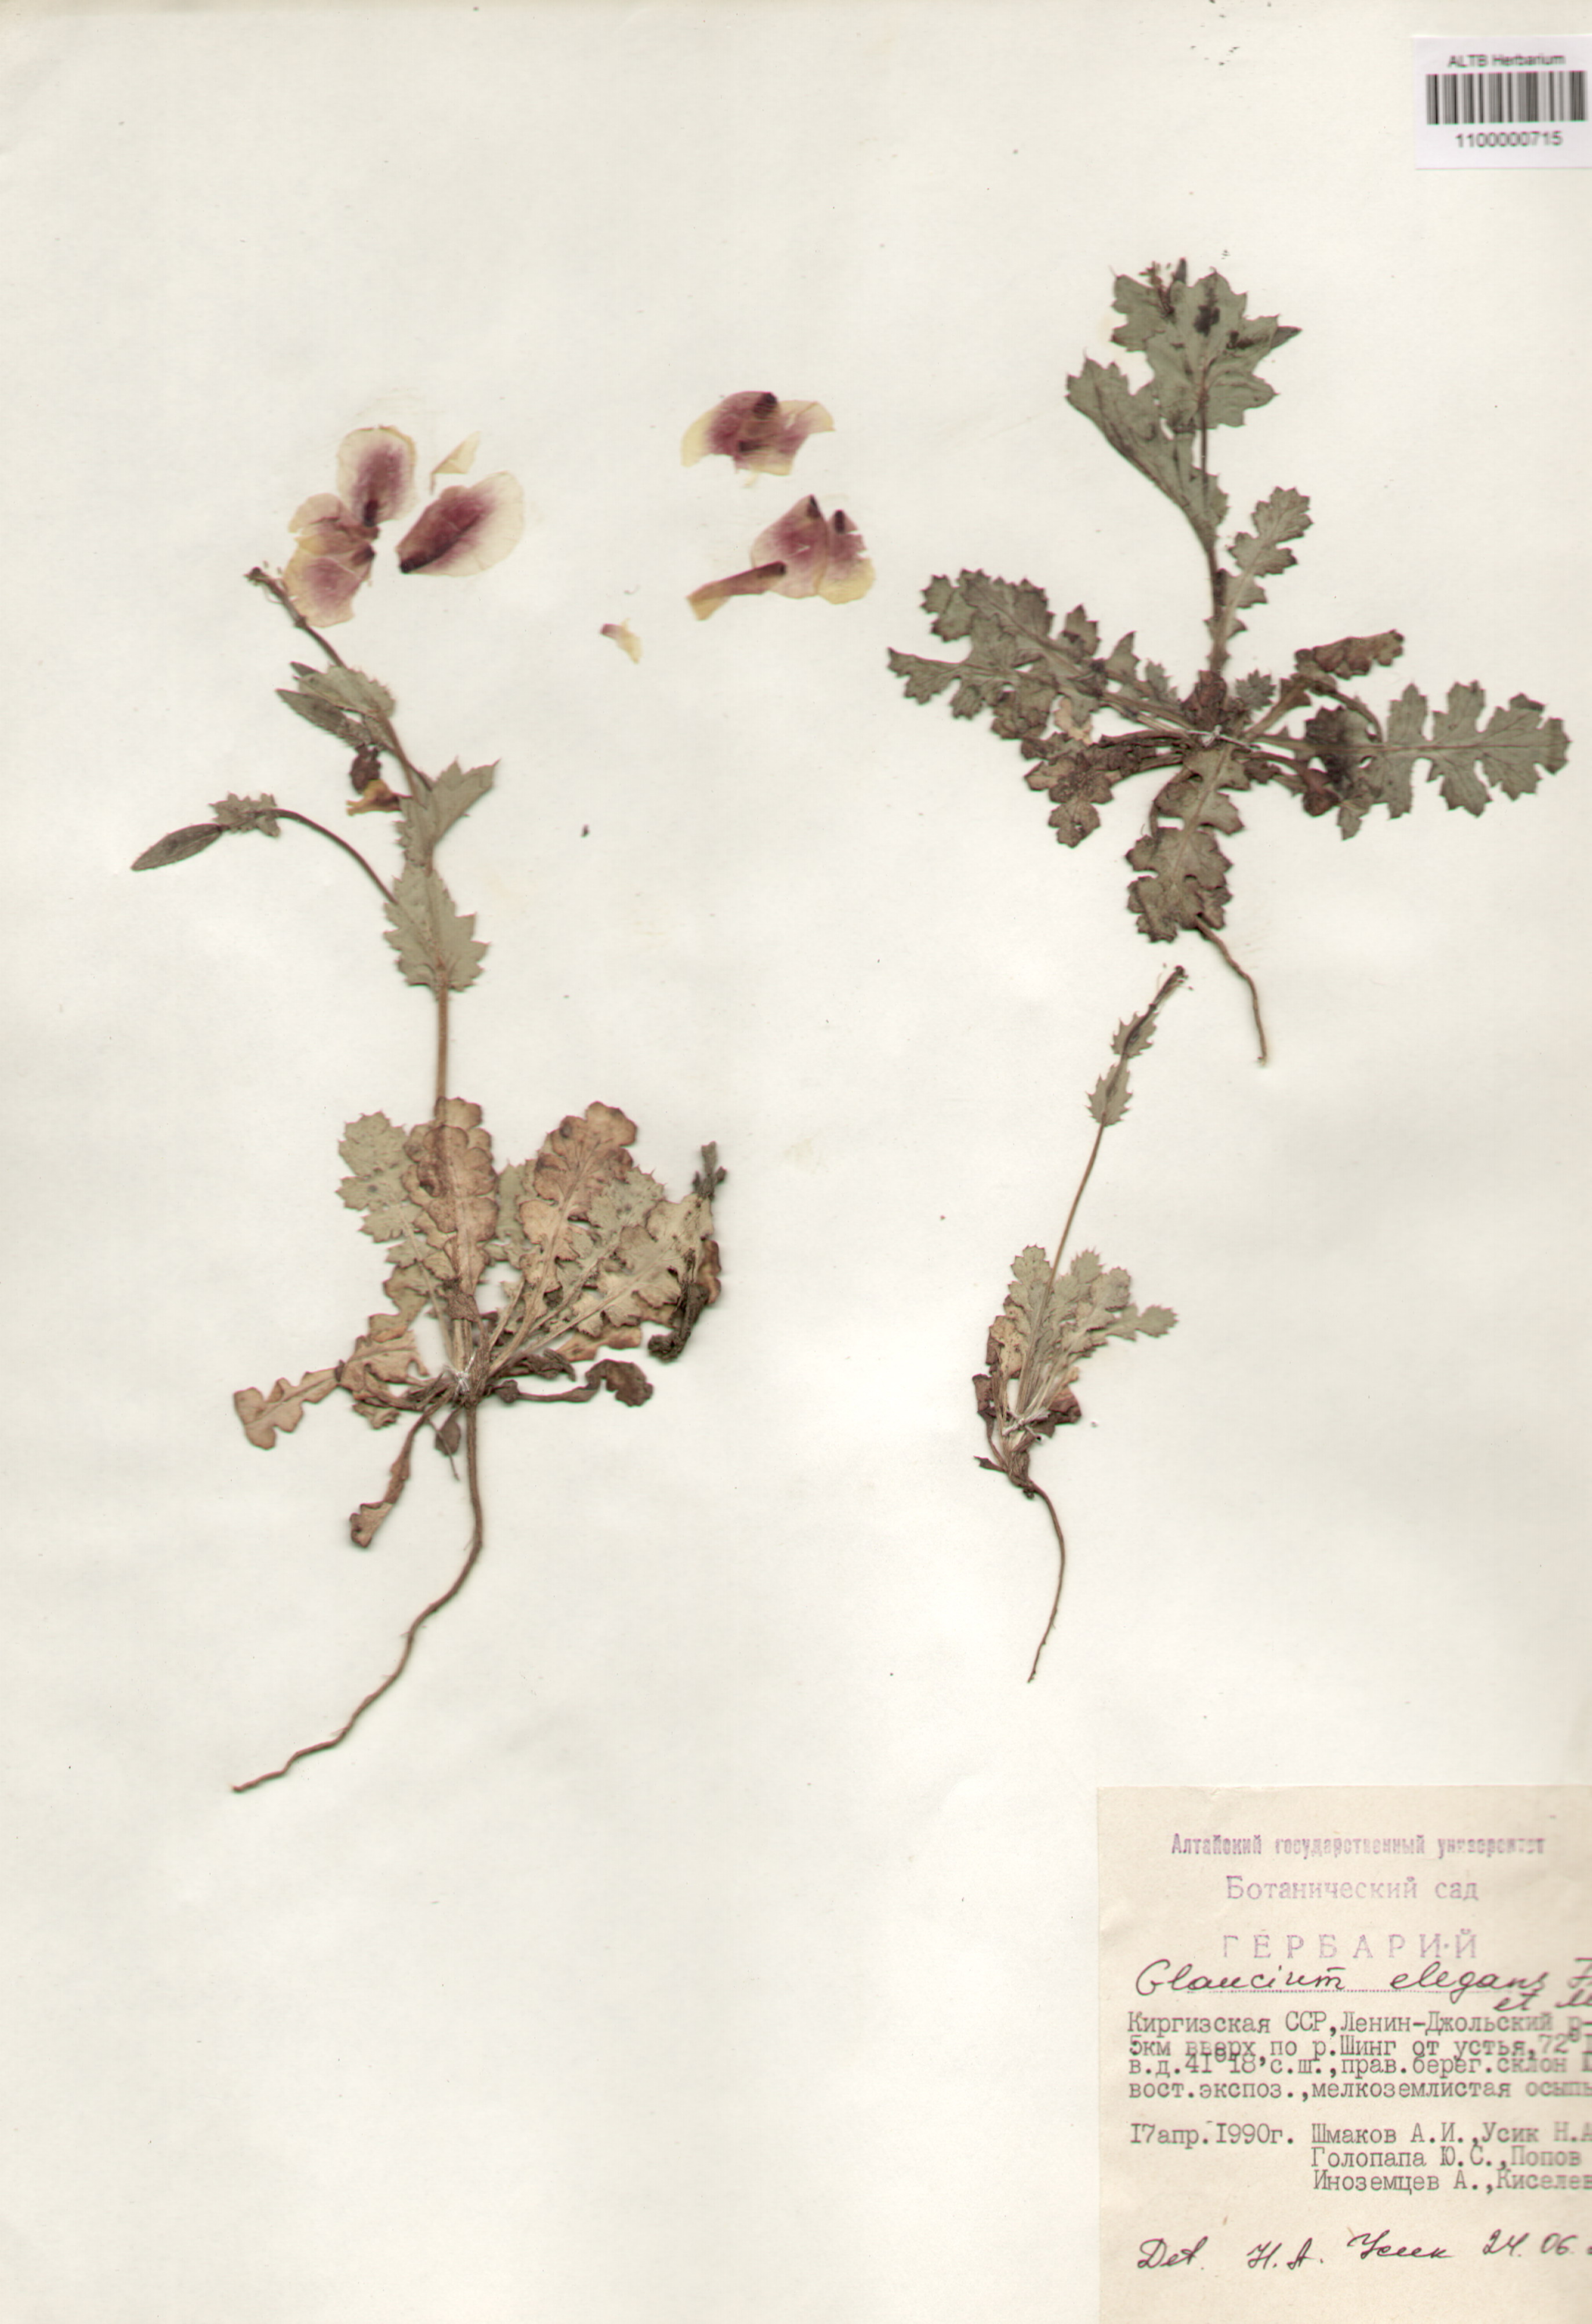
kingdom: Plantae
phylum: Tracheophyta
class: Magnoliopsida
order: Ranunculales
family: Papaveraceae
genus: Glaucium
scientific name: Glaucium elegans
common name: Annual horned-poppy
